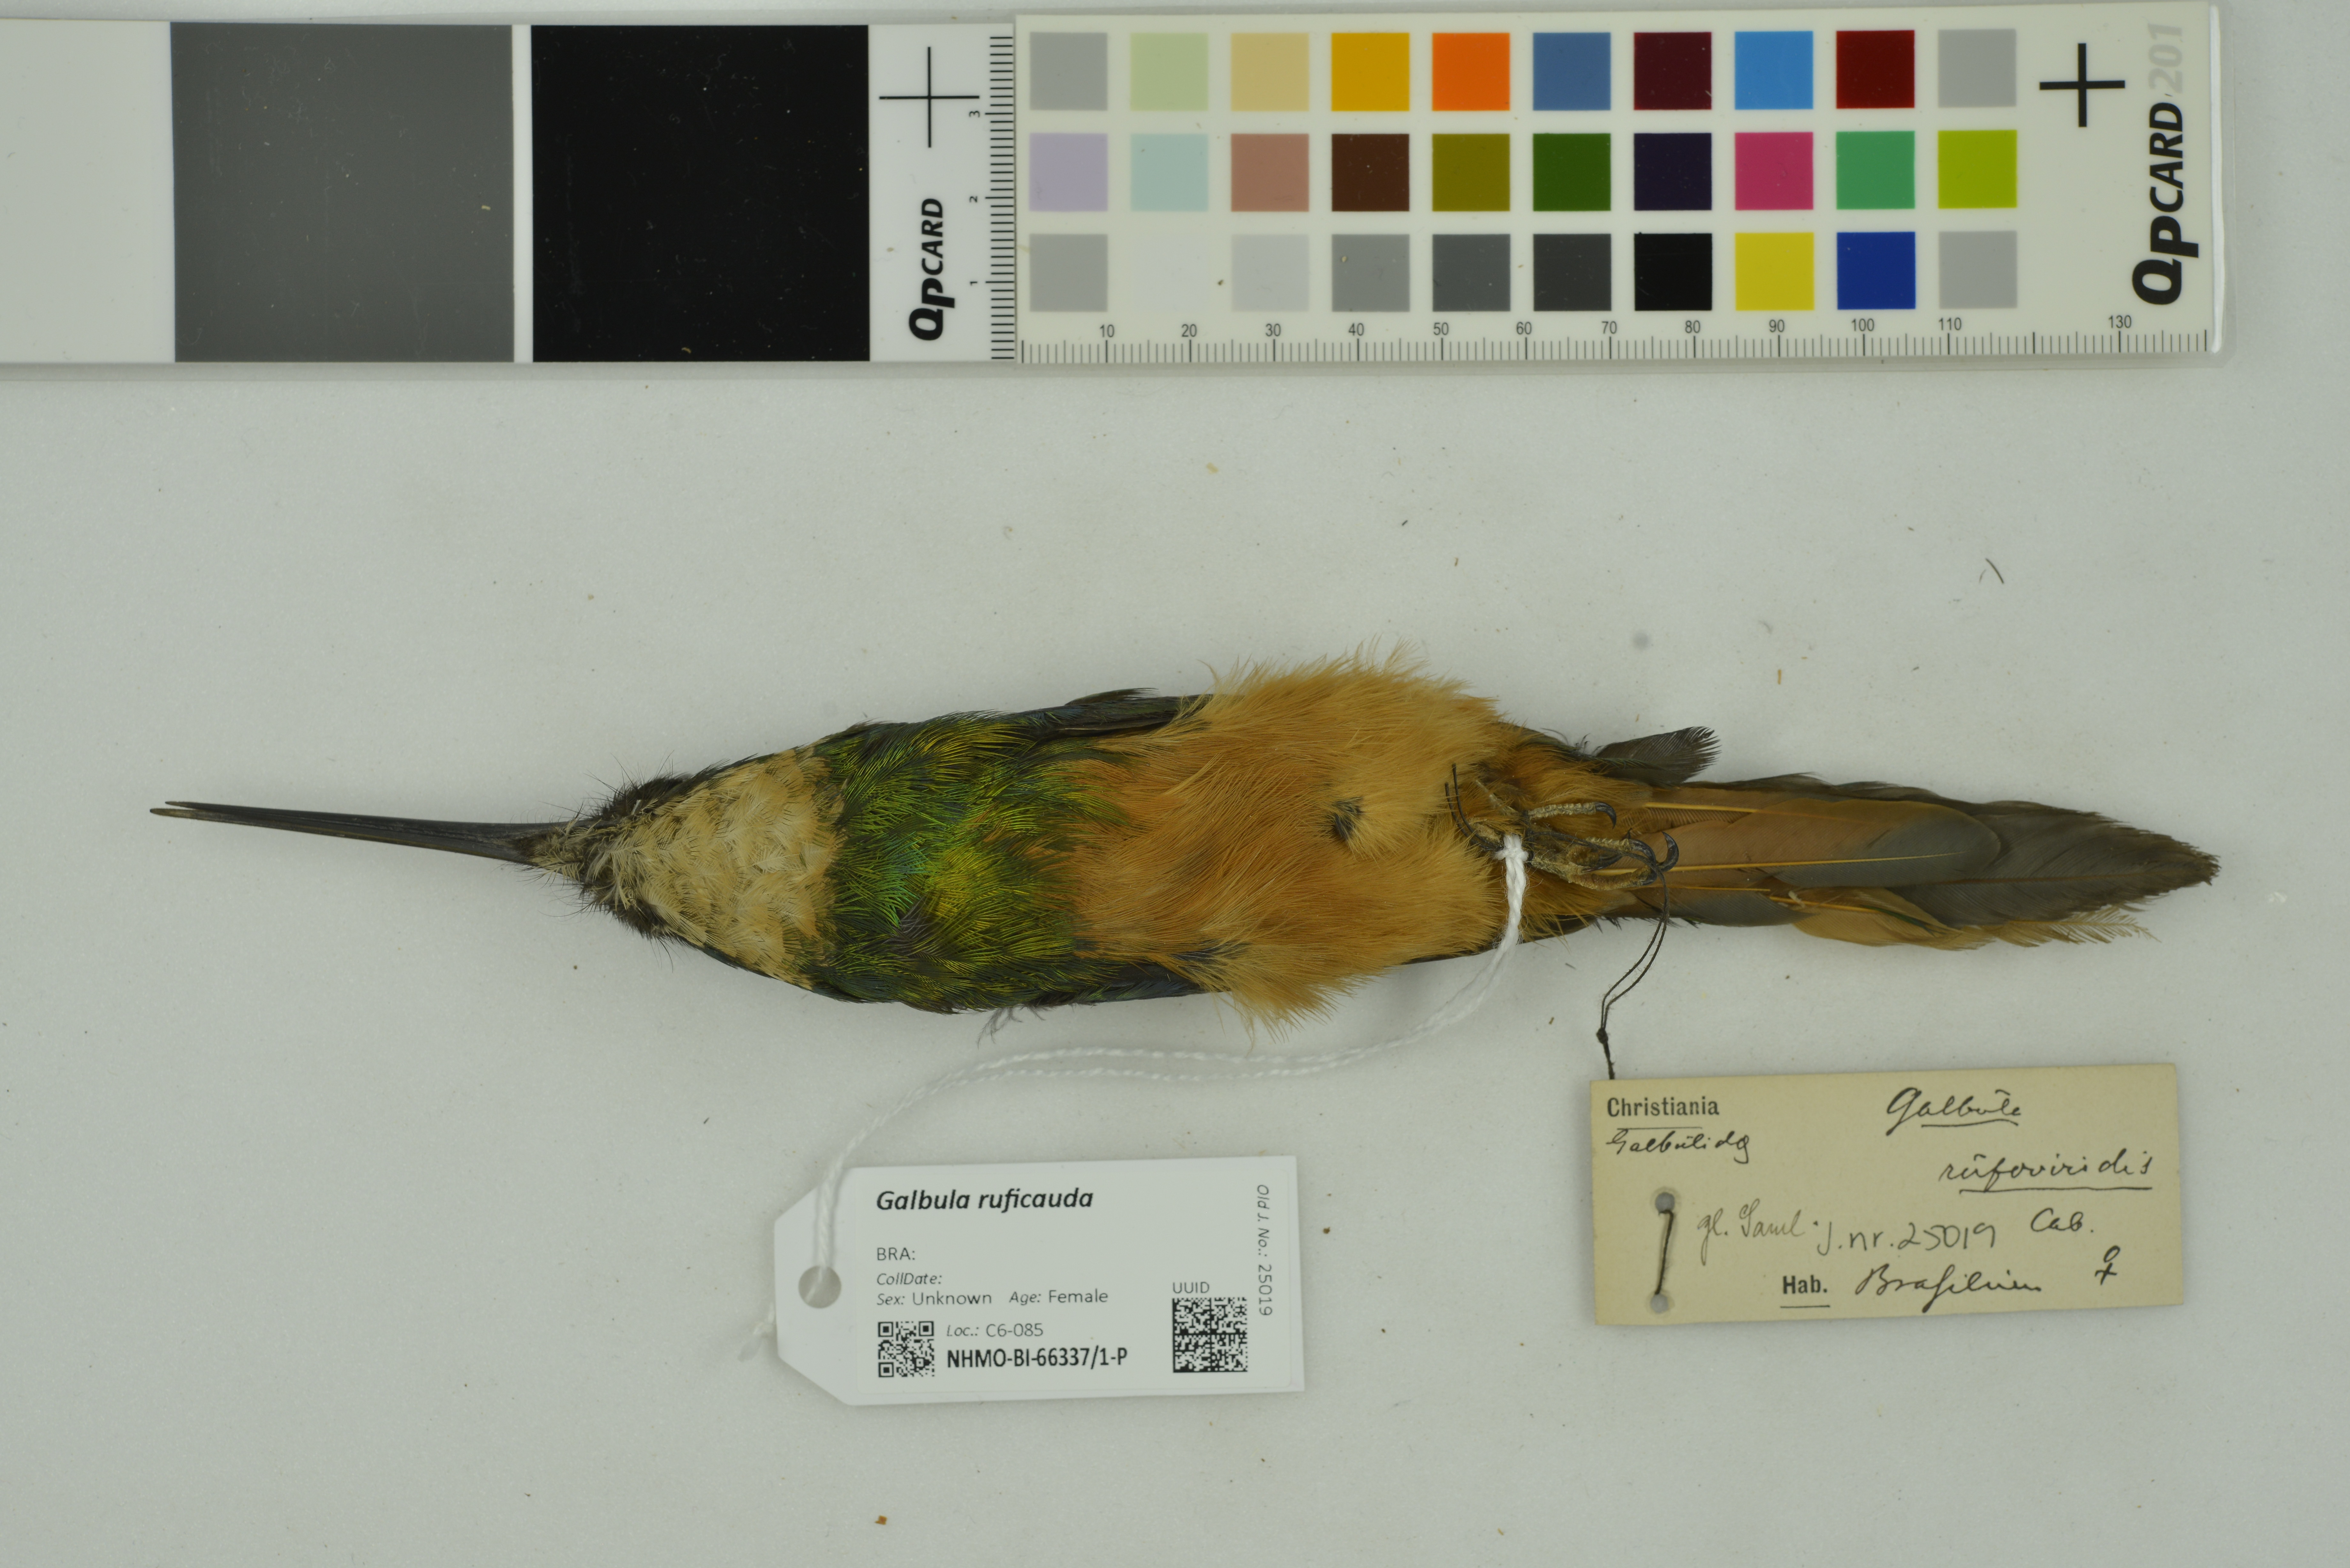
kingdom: Animalia
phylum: Chordata
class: Aves
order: Piciformes
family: Galbulidae
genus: Galbula
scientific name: Galbula ruficauda
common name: Rufous-tailed jacamar
